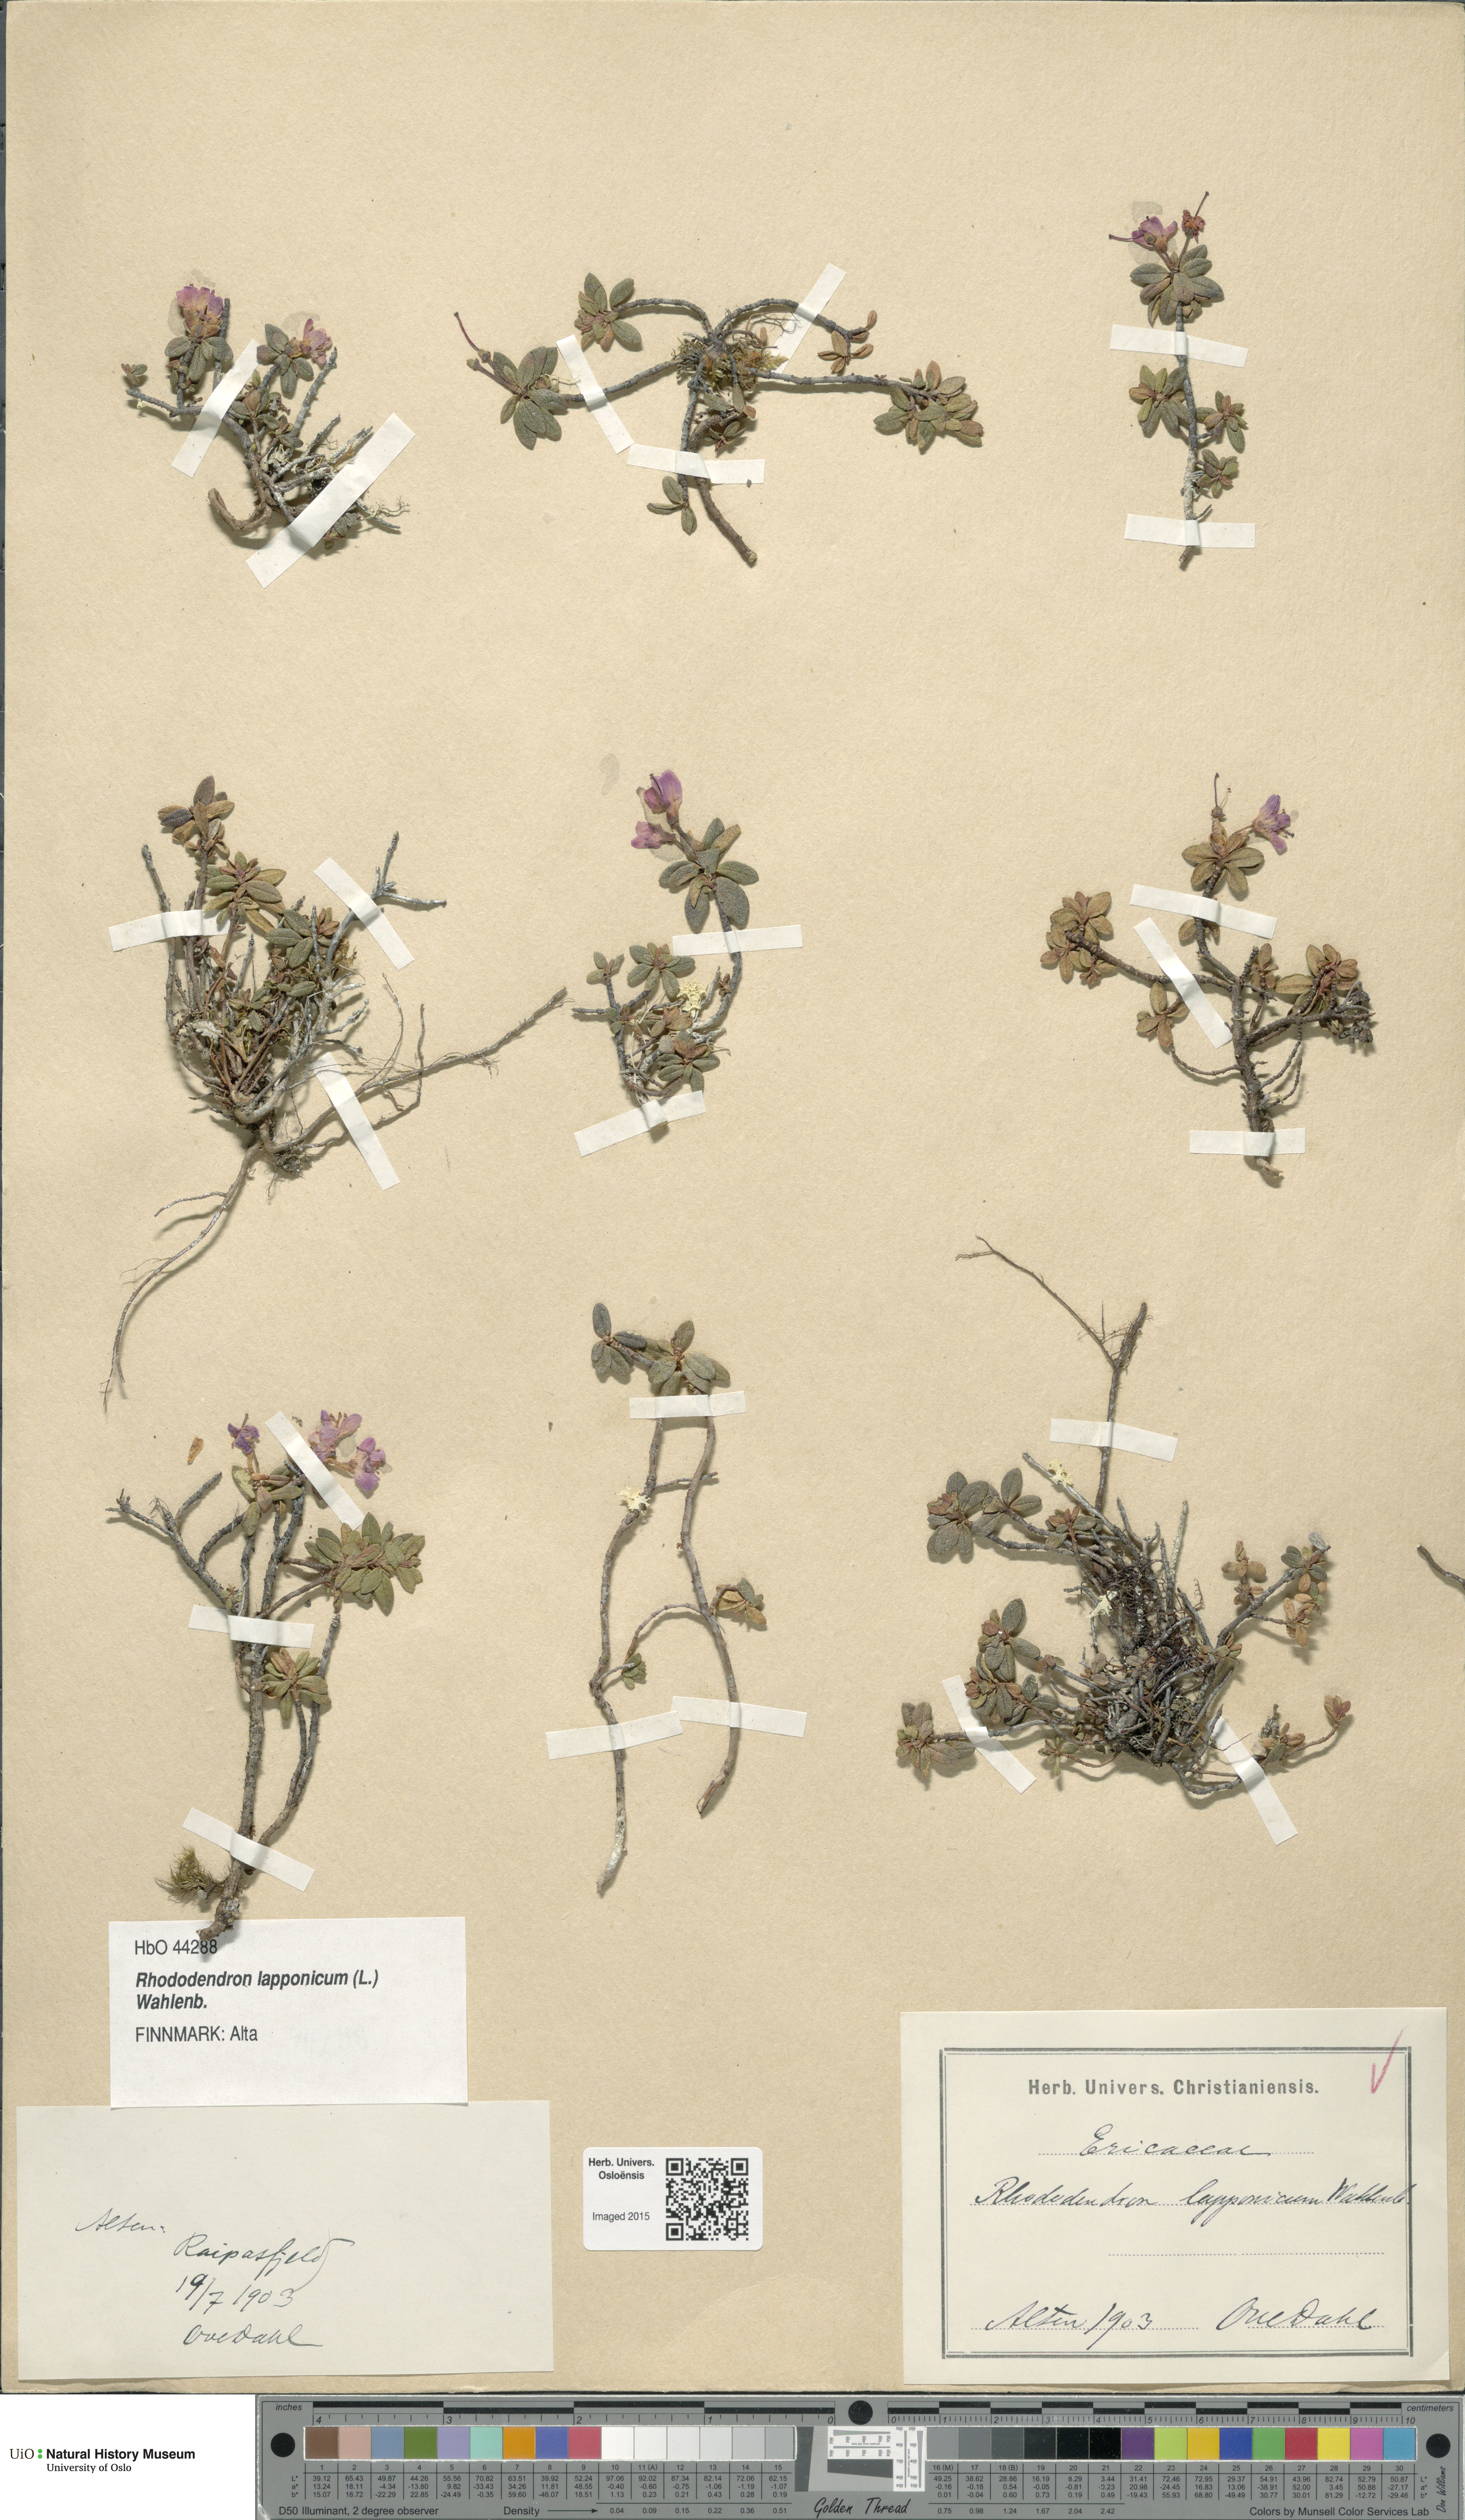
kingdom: Plantae
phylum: Tracheophyta
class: Magnoliopsida
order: Ericales
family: Ericaceae
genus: Rhododendron
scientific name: Rhododendron lapponicum
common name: Lapland rhododendron
